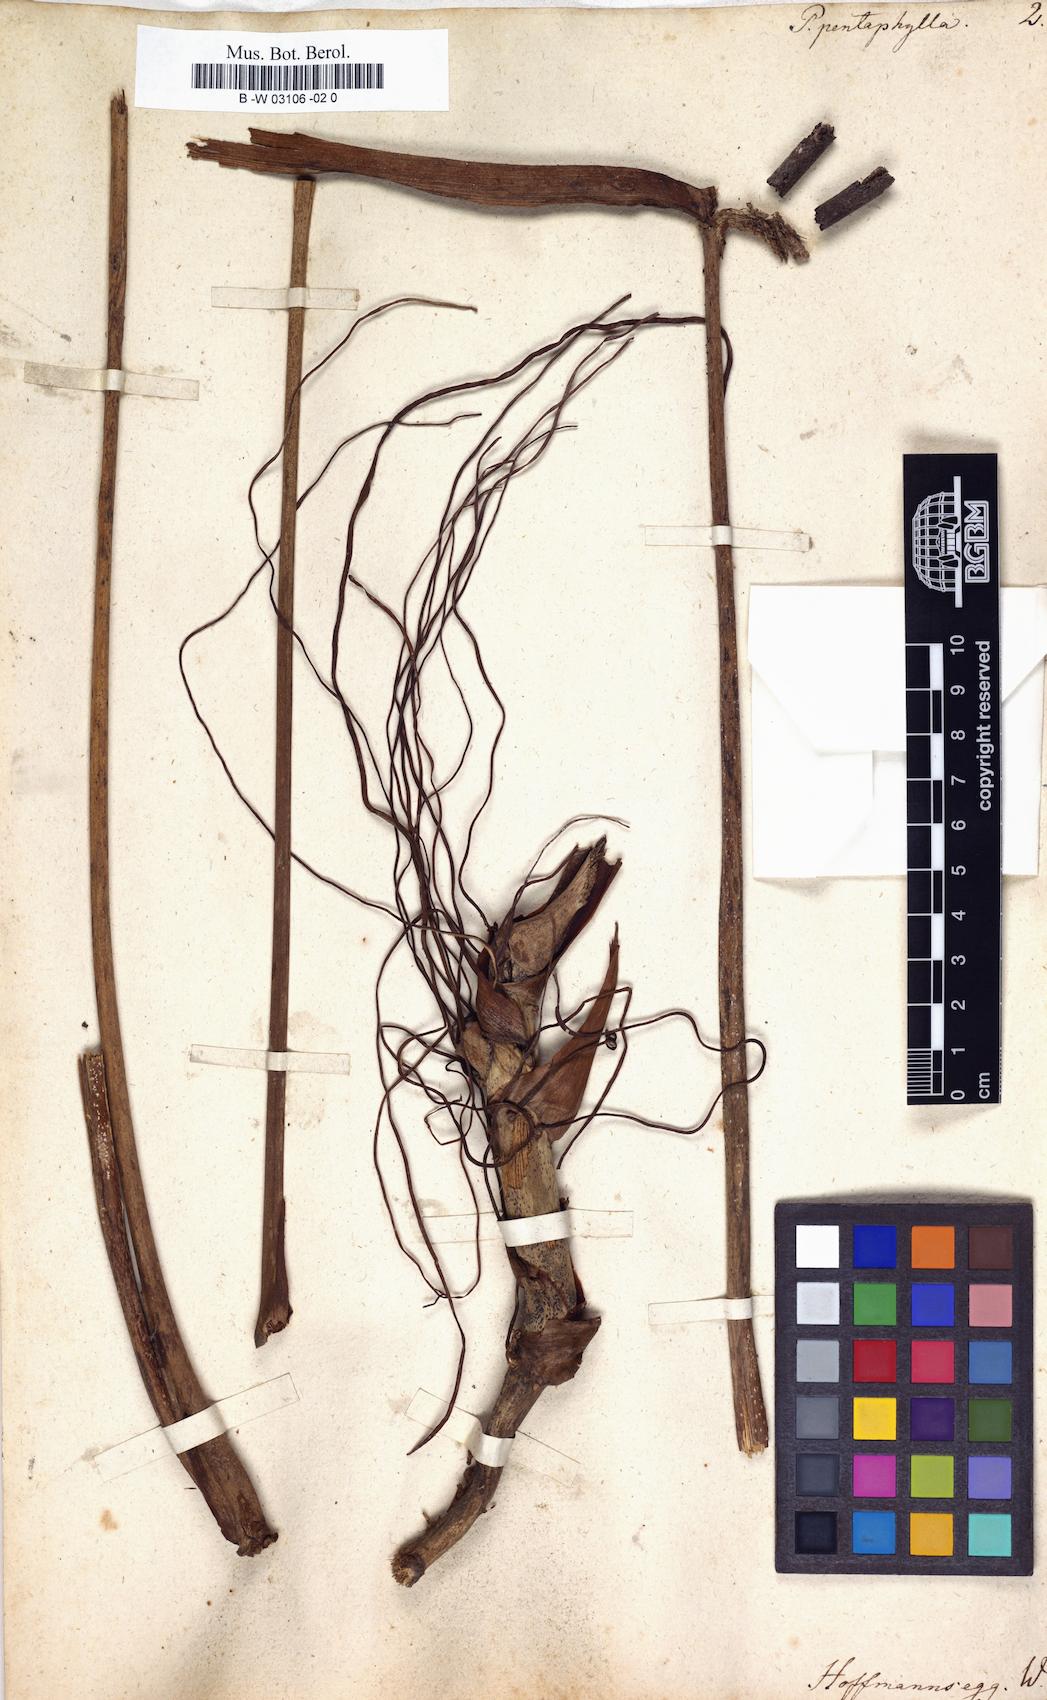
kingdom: Plantae
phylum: Tracheophyta
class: Liliopsida
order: Alismatales
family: Araceae
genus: Pothos
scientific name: Pothos pentaphylla
